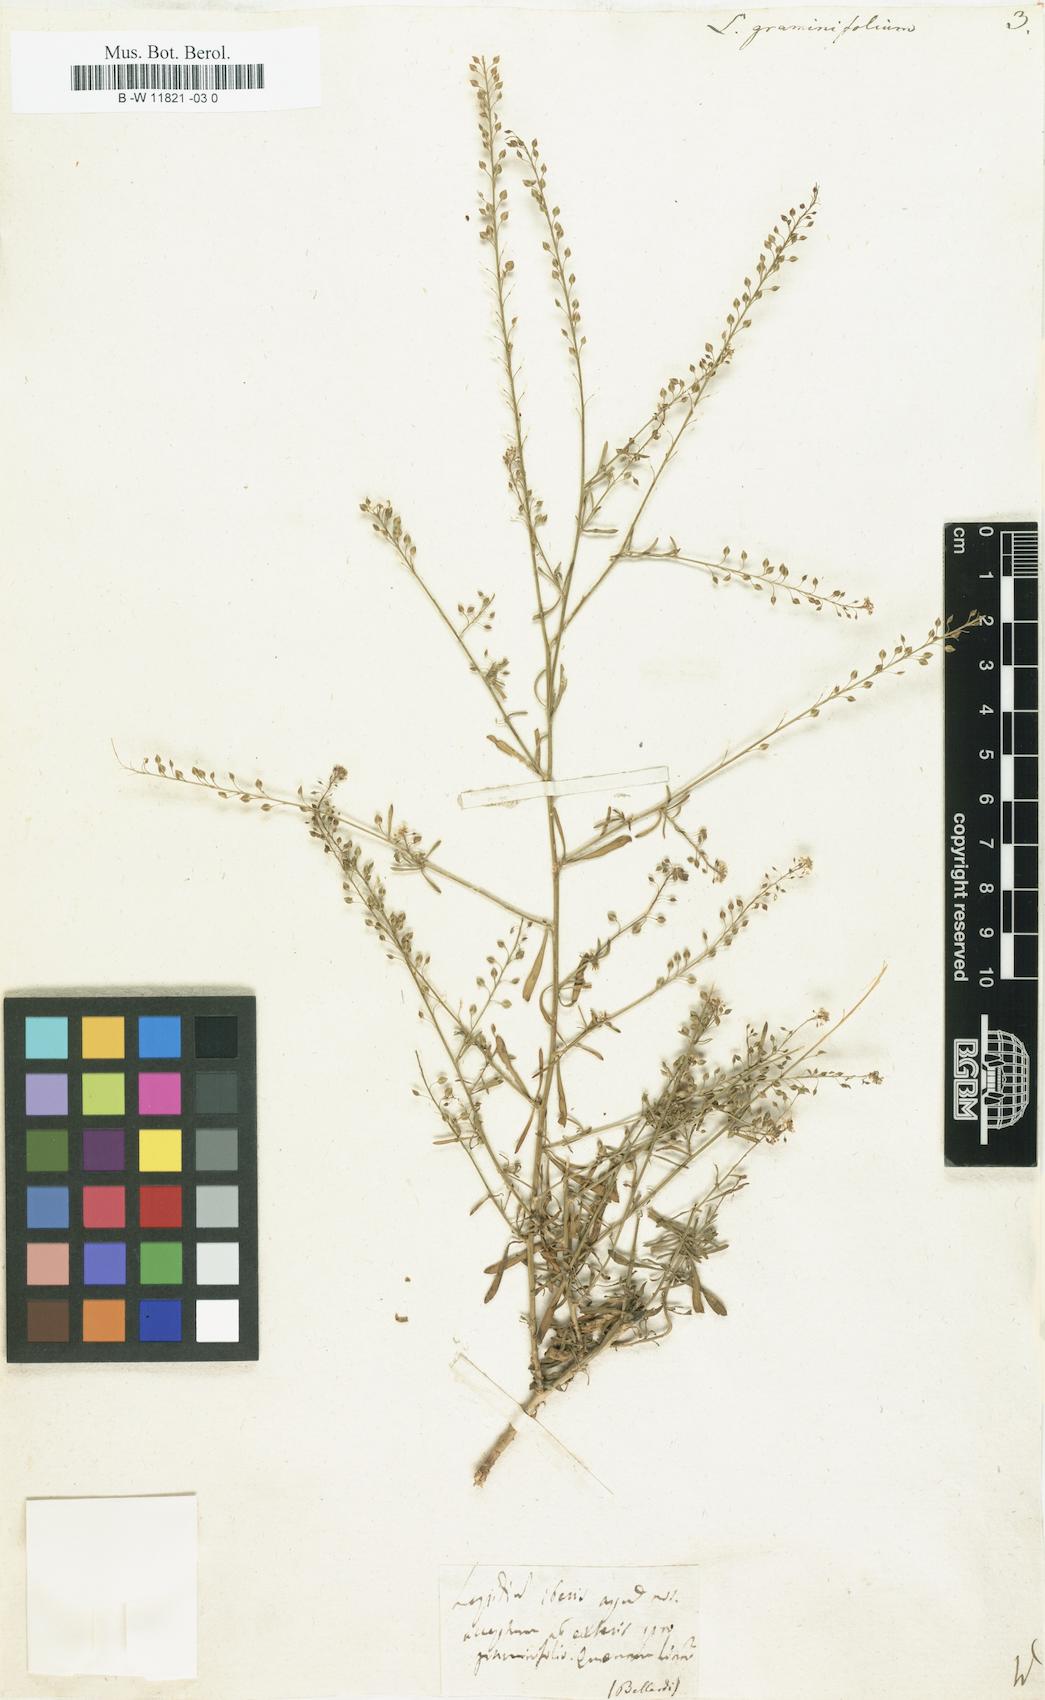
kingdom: Plantae
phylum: Tracheophyta
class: Magnoliopsida
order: Brassicales
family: Brassicaceae
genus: Lepidium
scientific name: Lepidium graminifolium
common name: Tall pepperwort
